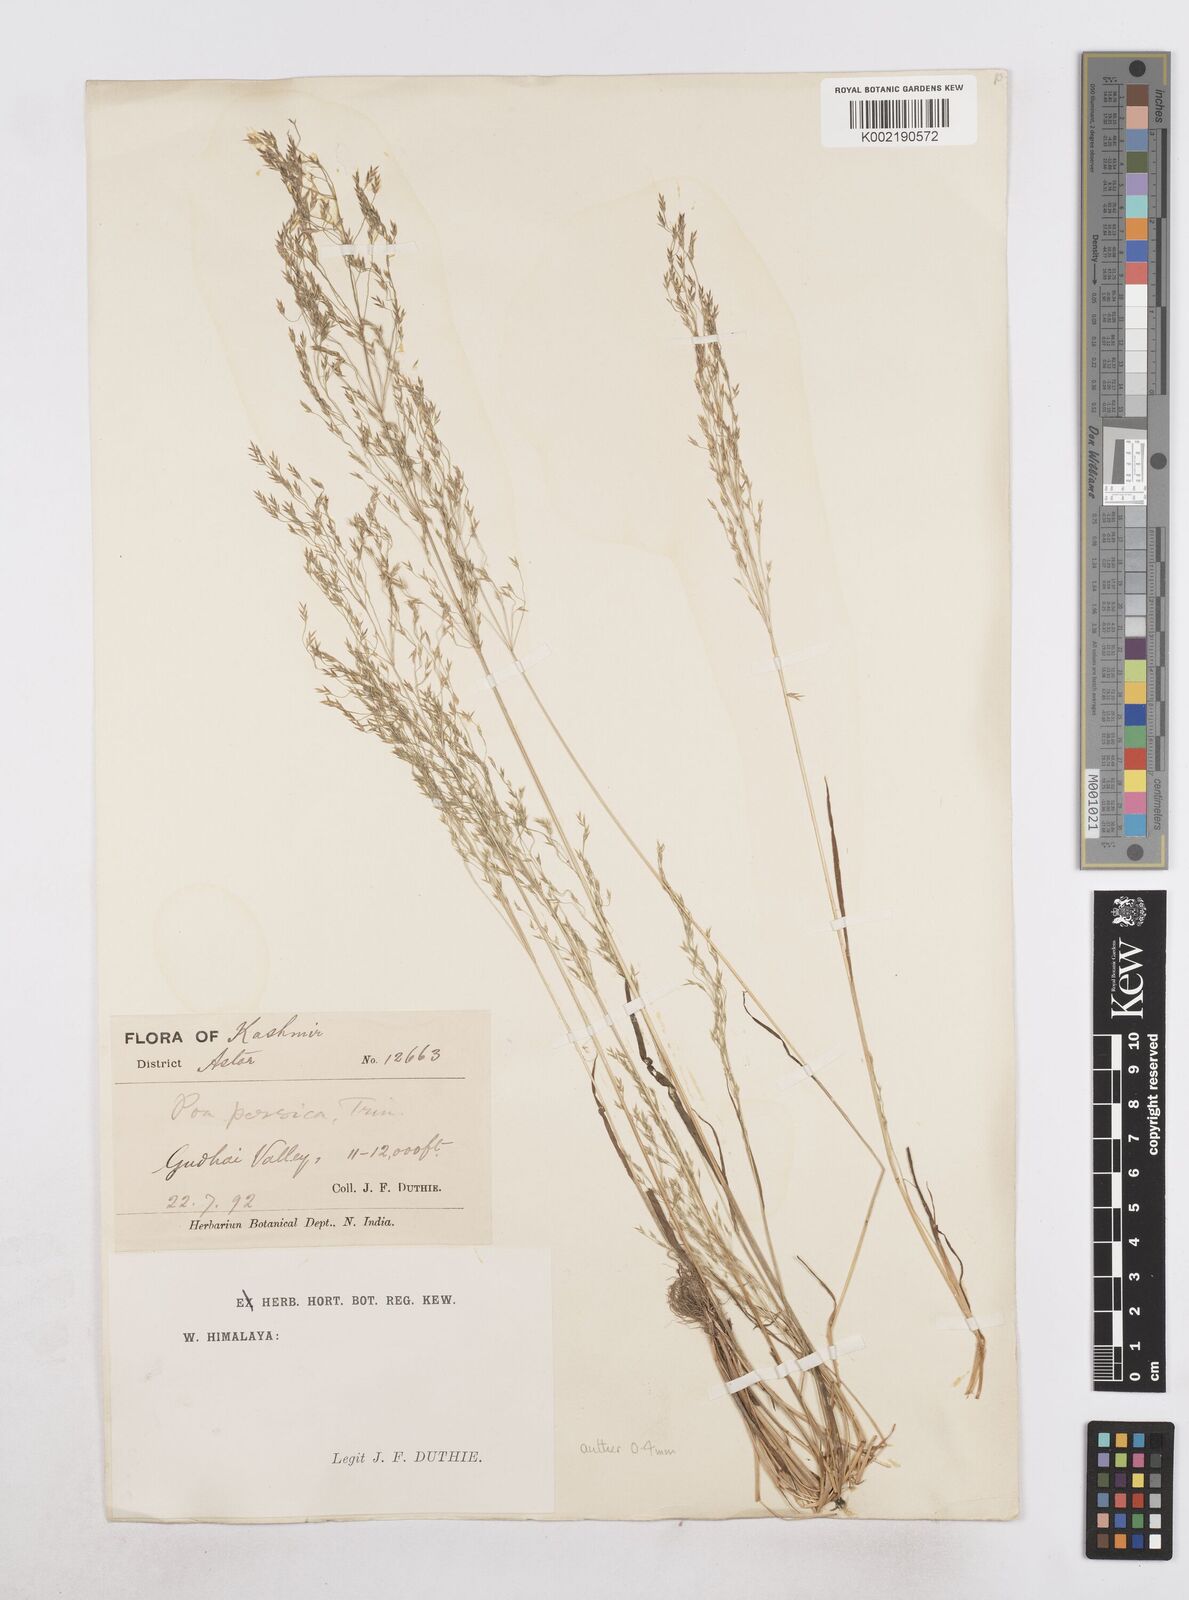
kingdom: Plantae
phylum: Tracheophyta
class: Liliopsida
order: Poales
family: Poaceae
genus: Poa
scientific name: Poa diaphora
